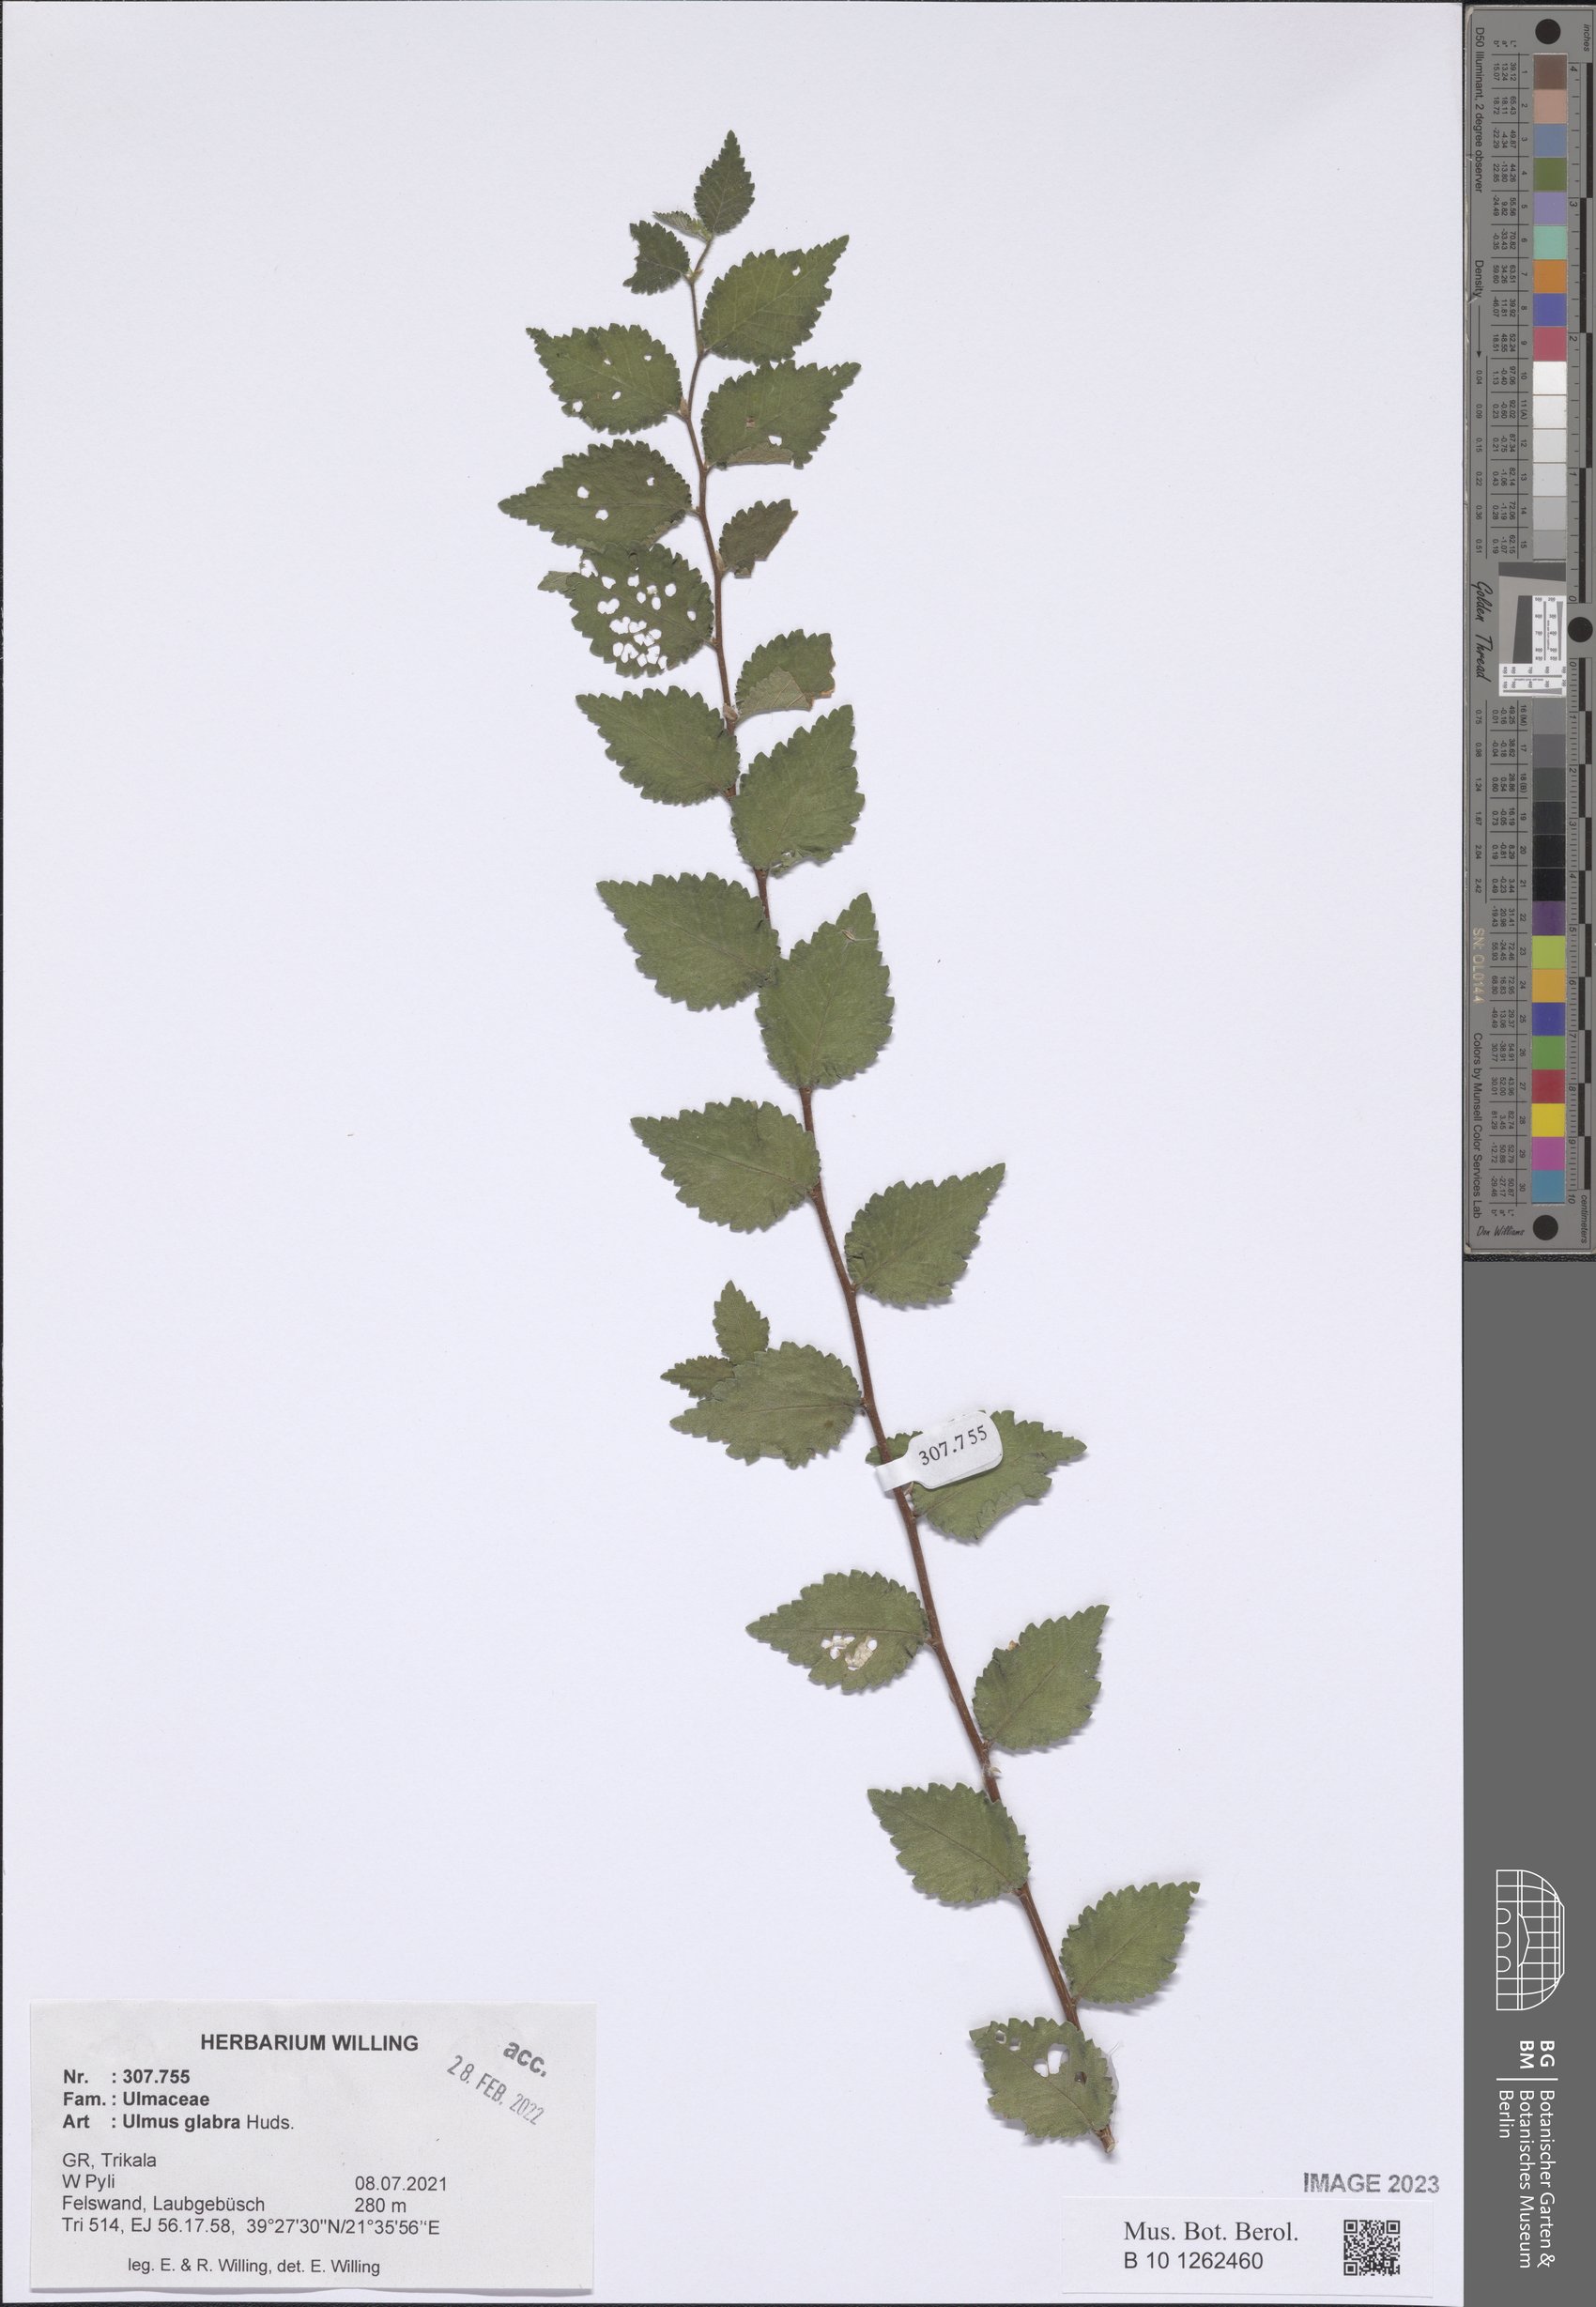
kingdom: Plantae
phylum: Tracheophyta
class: Magnoliopsida
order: Rosales
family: Ulmaceae
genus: Ulmus
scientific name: Ulmus glabra
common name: Wych elm
